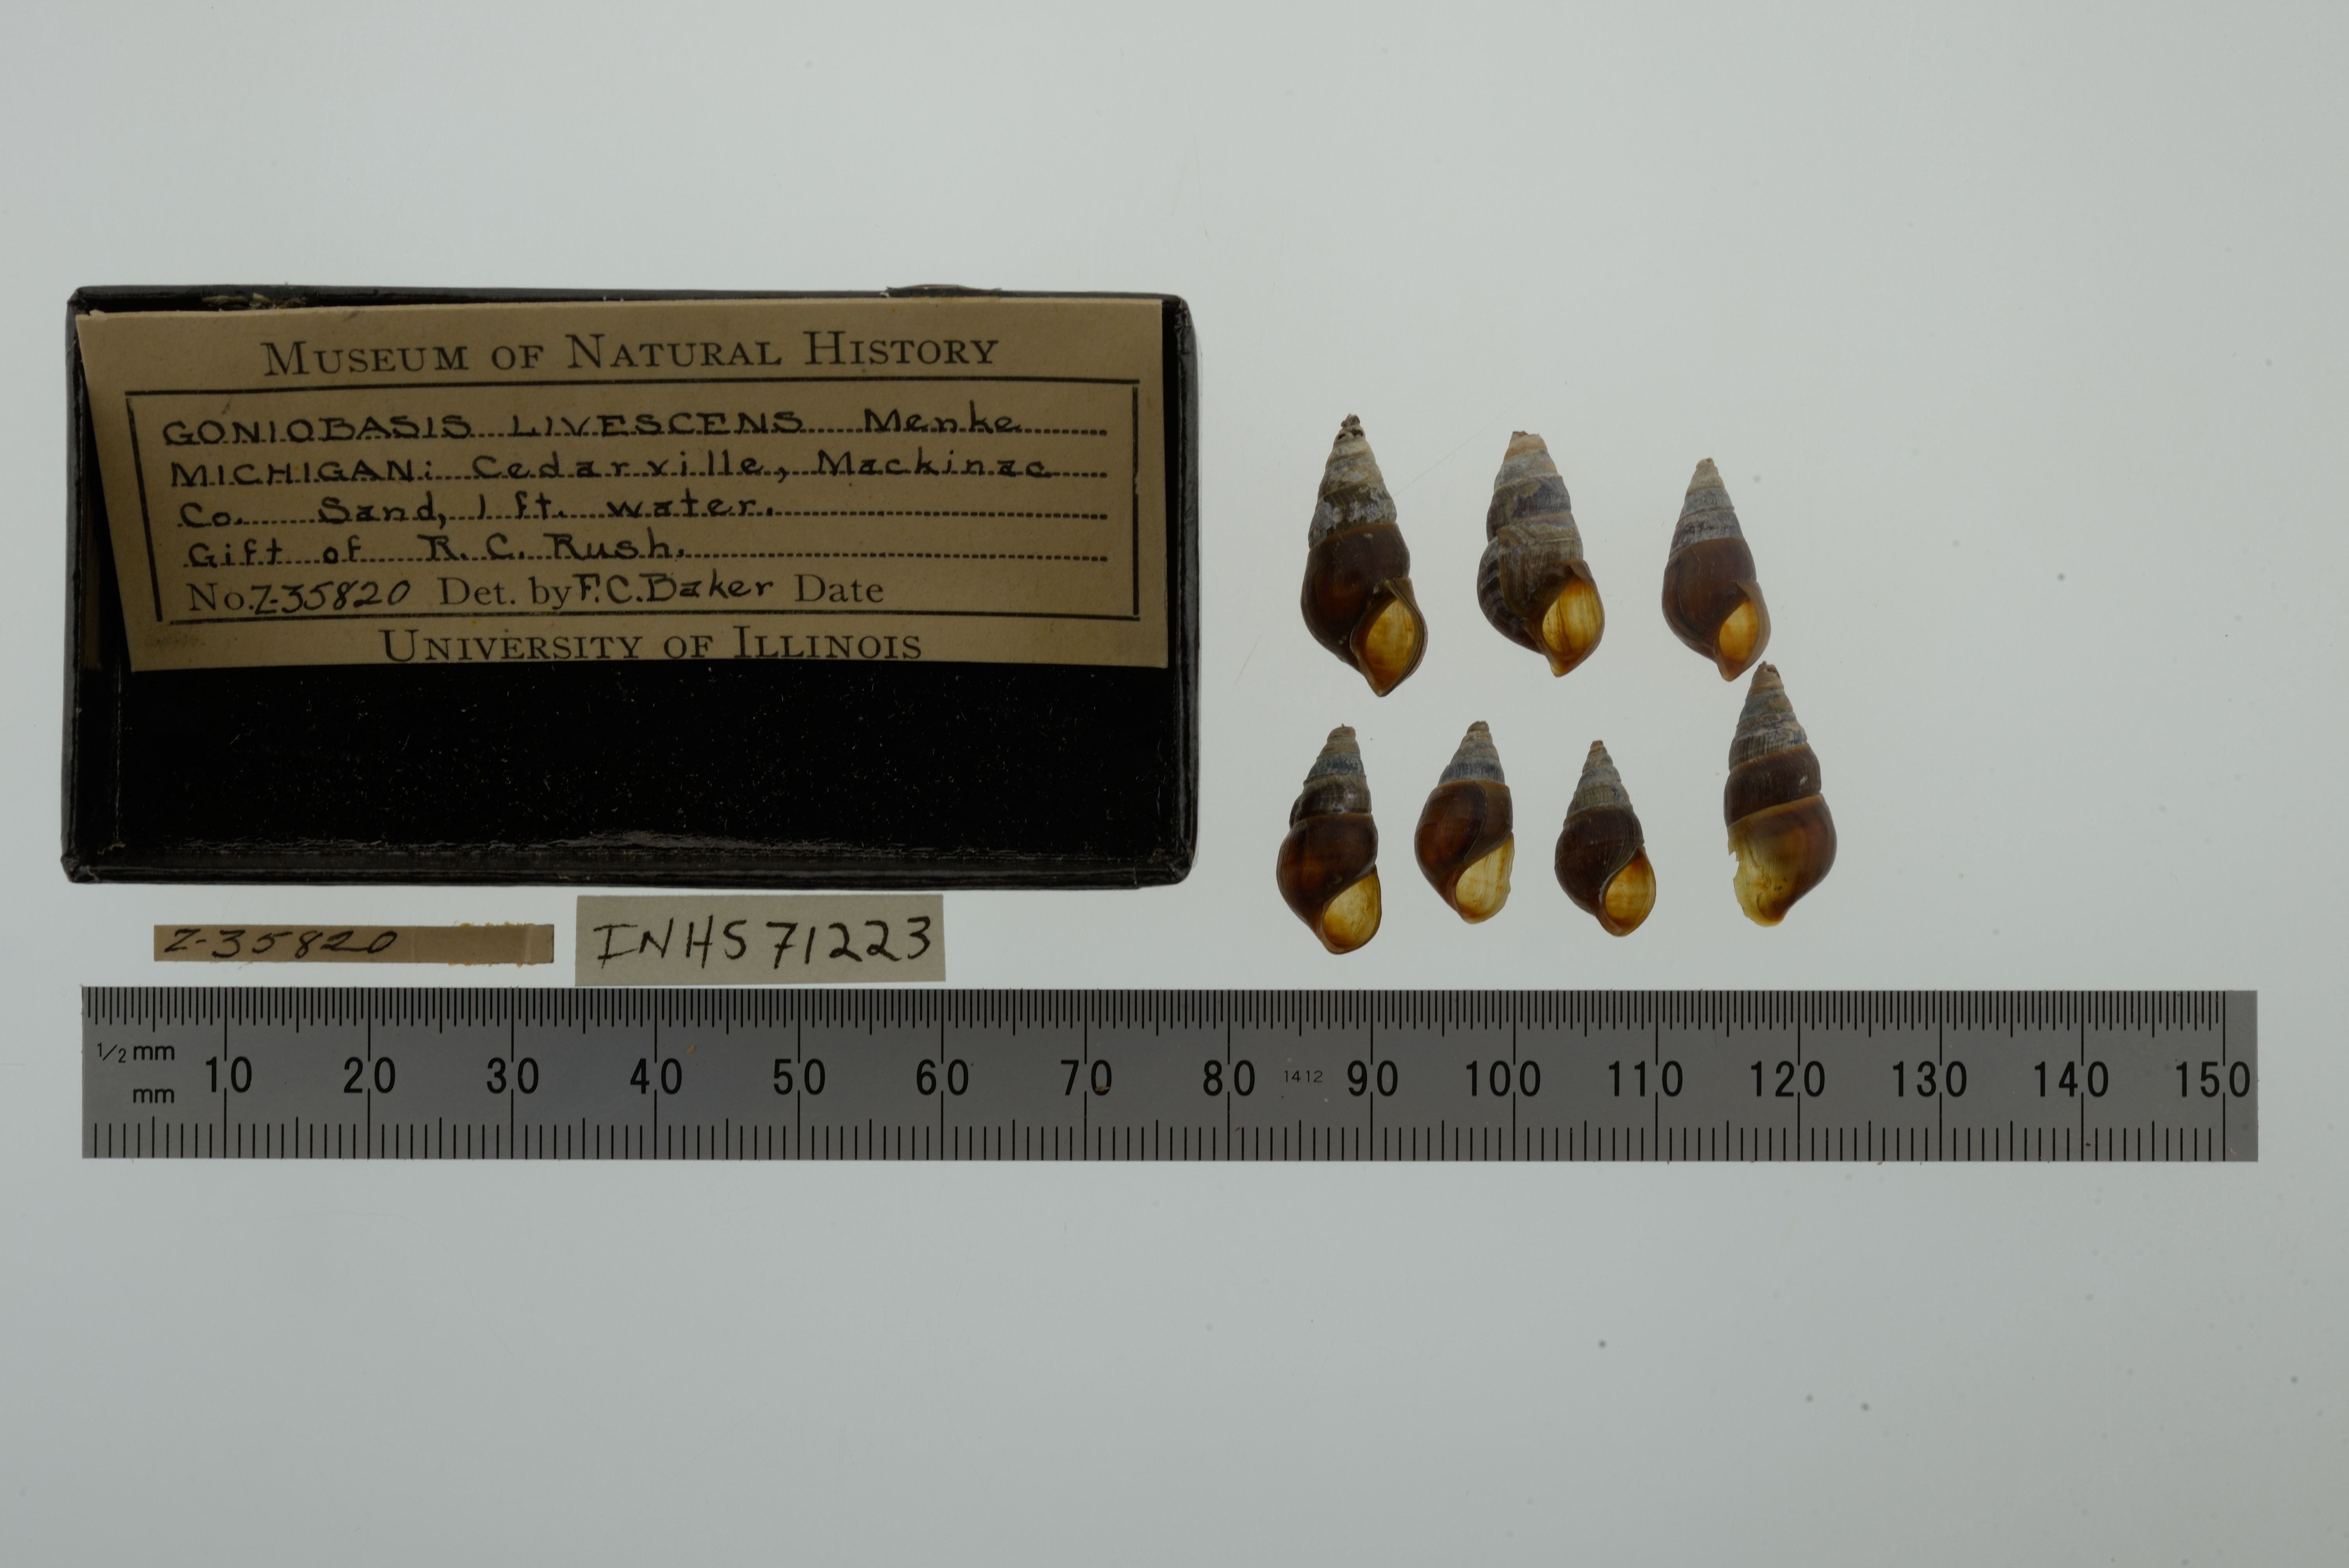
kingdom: Animalia
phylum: Mollusca
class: Gastropoda
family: Pleuroceridae
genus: Elimia
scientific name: Elimia livescens
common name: Liver elimia
